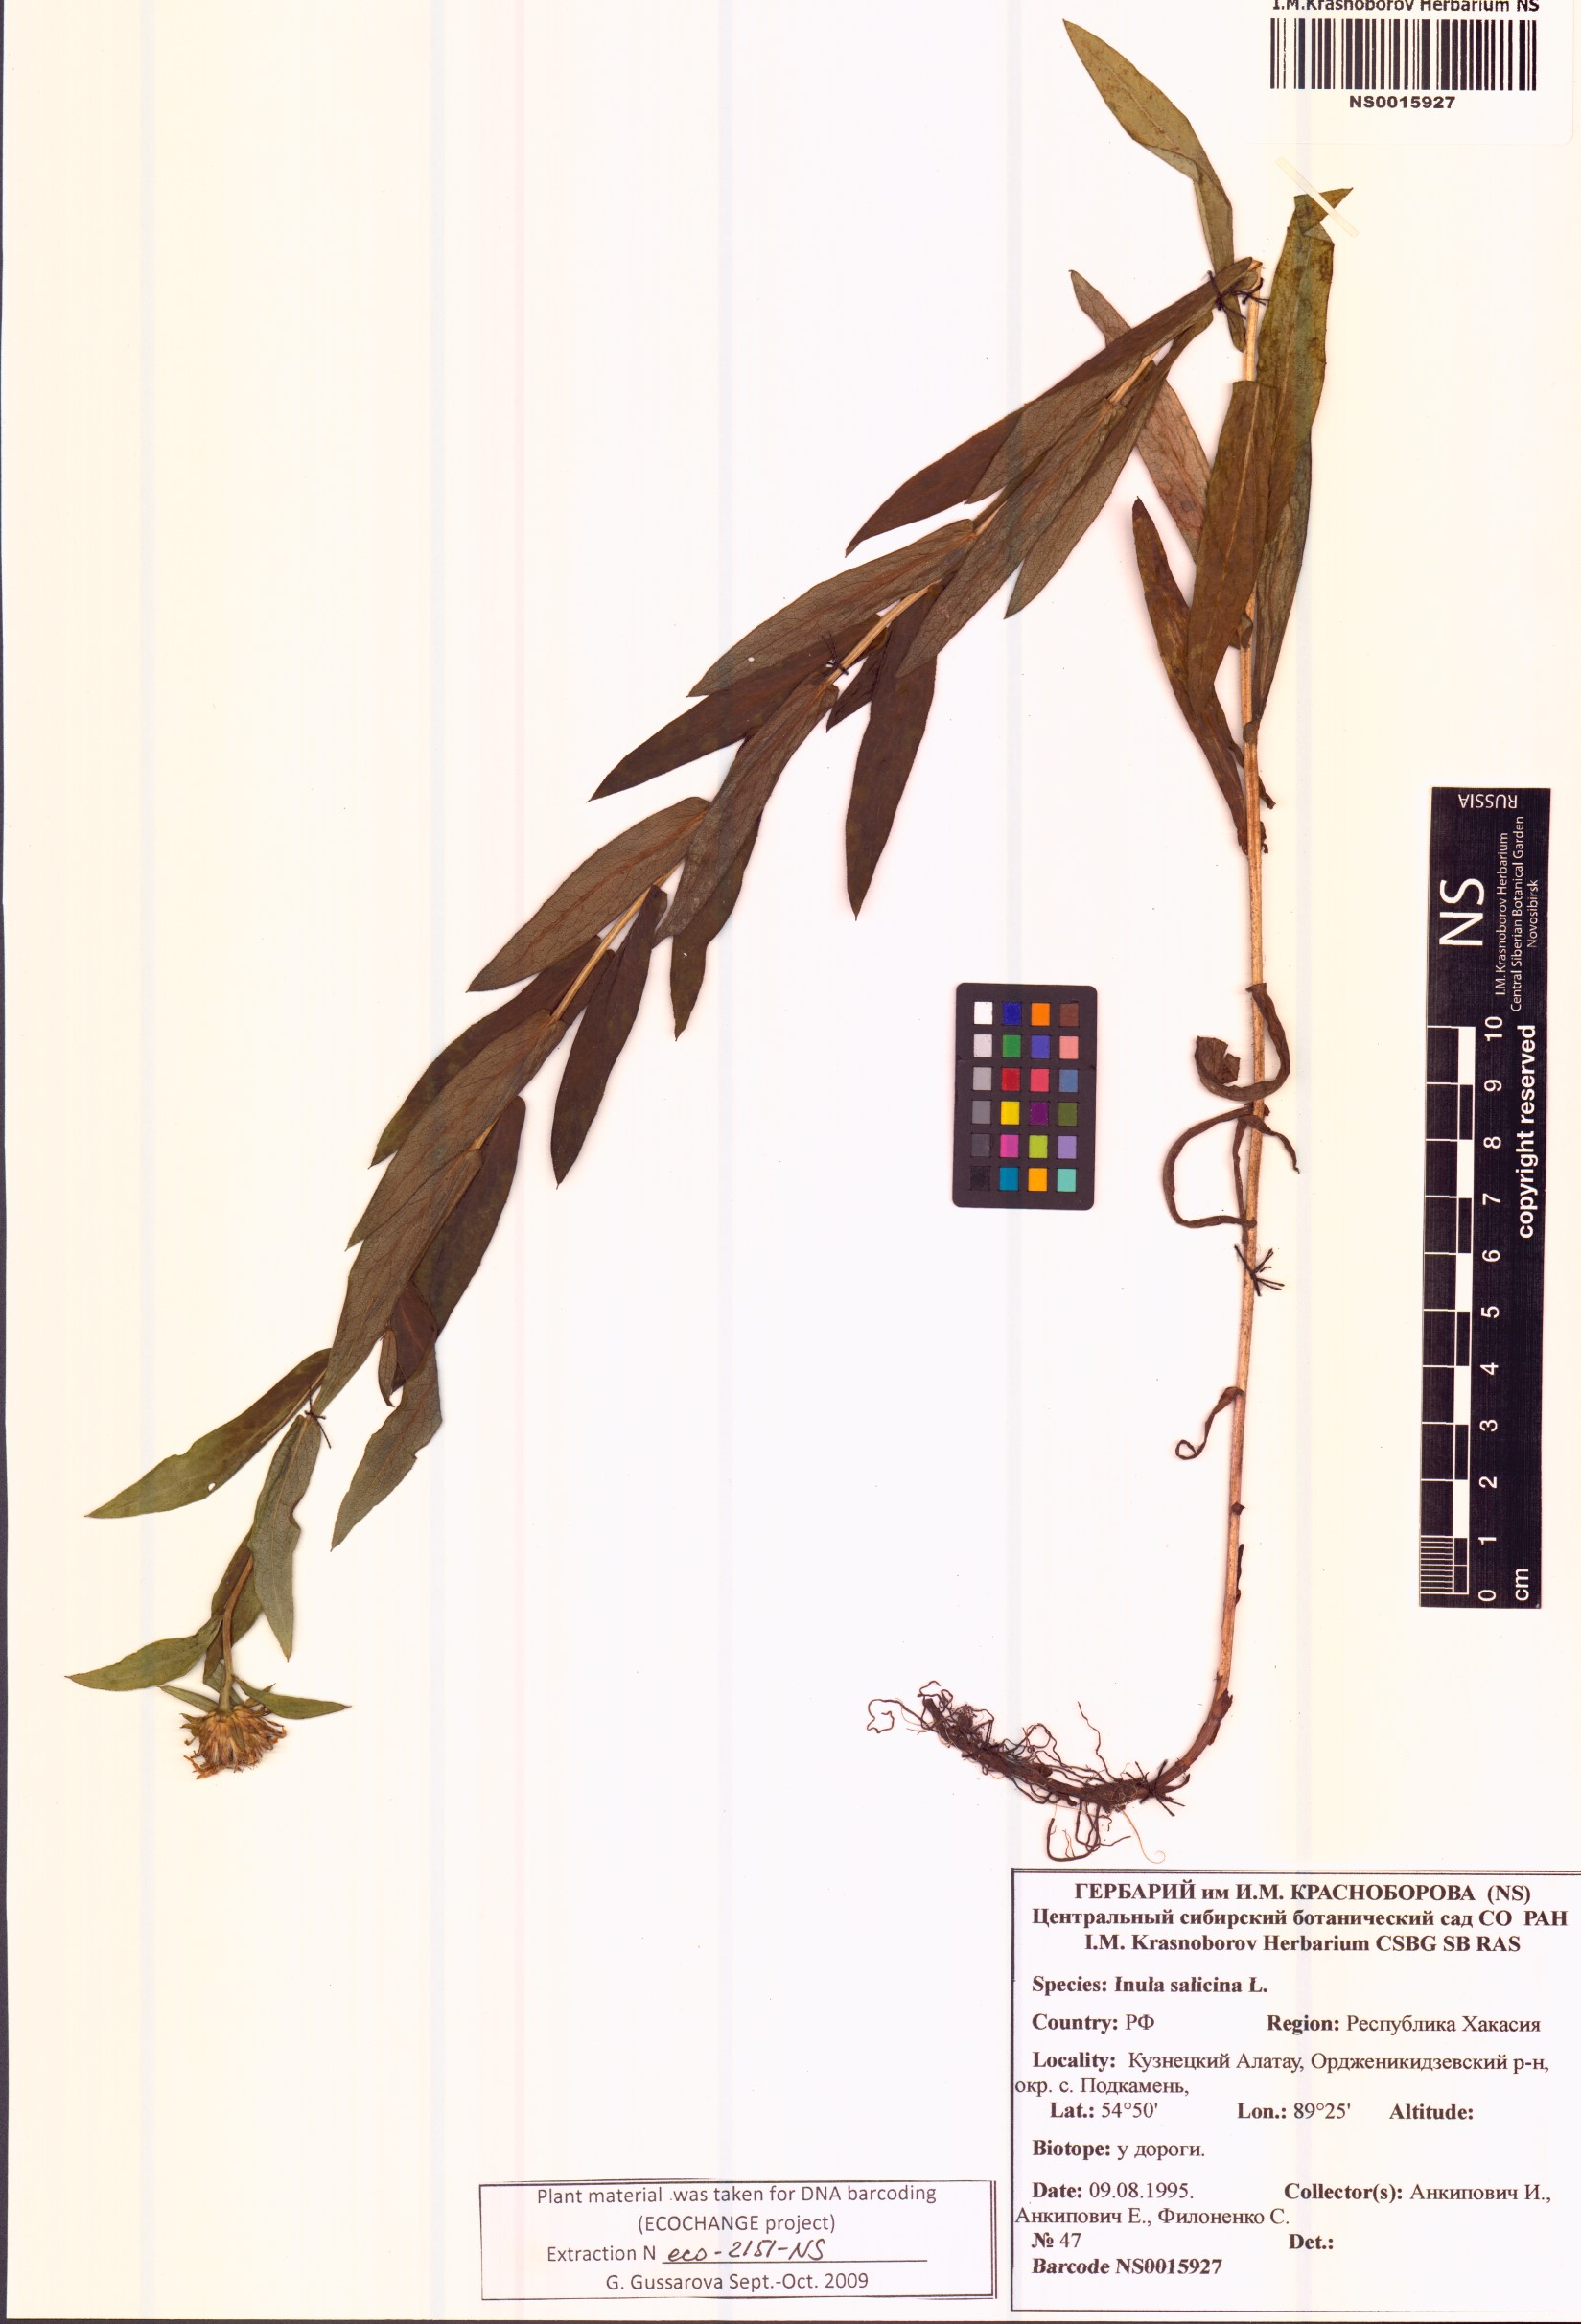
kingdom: Plantae
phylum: Tracheophyta
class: Magnoliopsida
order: Asterales
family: Asteraceae
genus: Pentanema
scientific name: Pentanema salicinum
